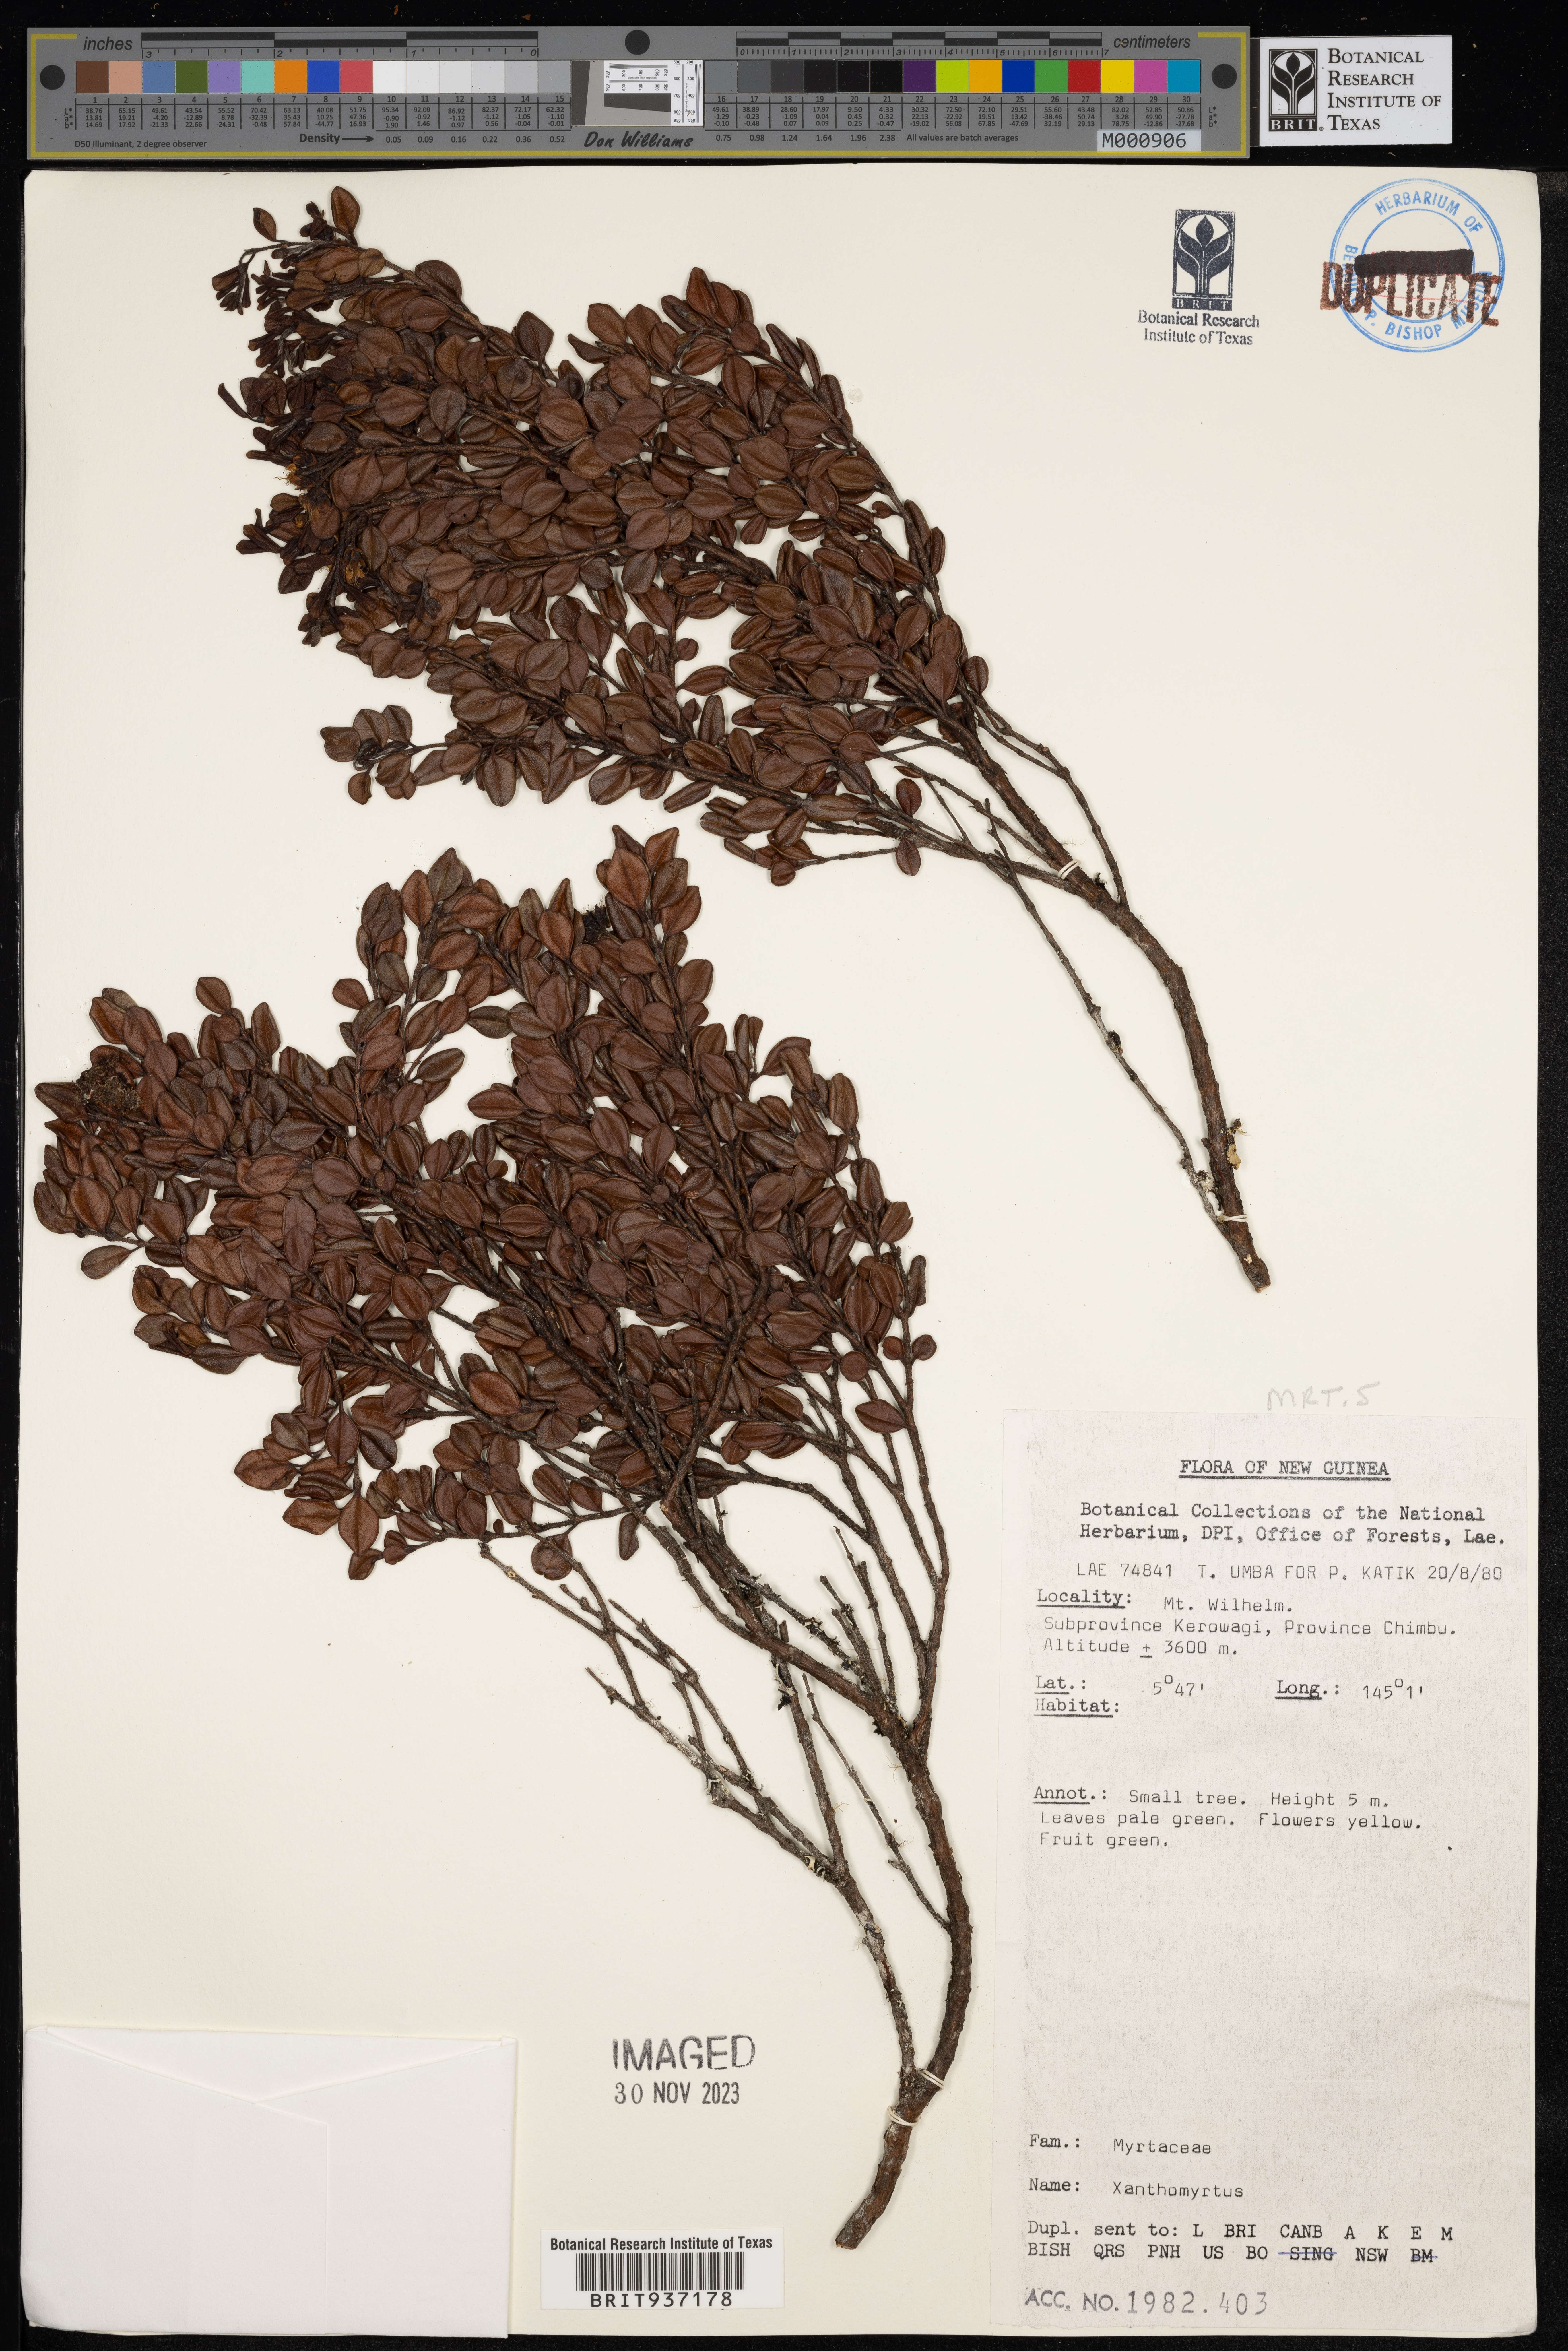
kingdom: Plantae
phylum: Tracheophyta
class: Magnoliopsida
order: Myrtales
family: Myrtaceae
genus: Xanthomyrtus
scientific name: Xanthomyrtus
